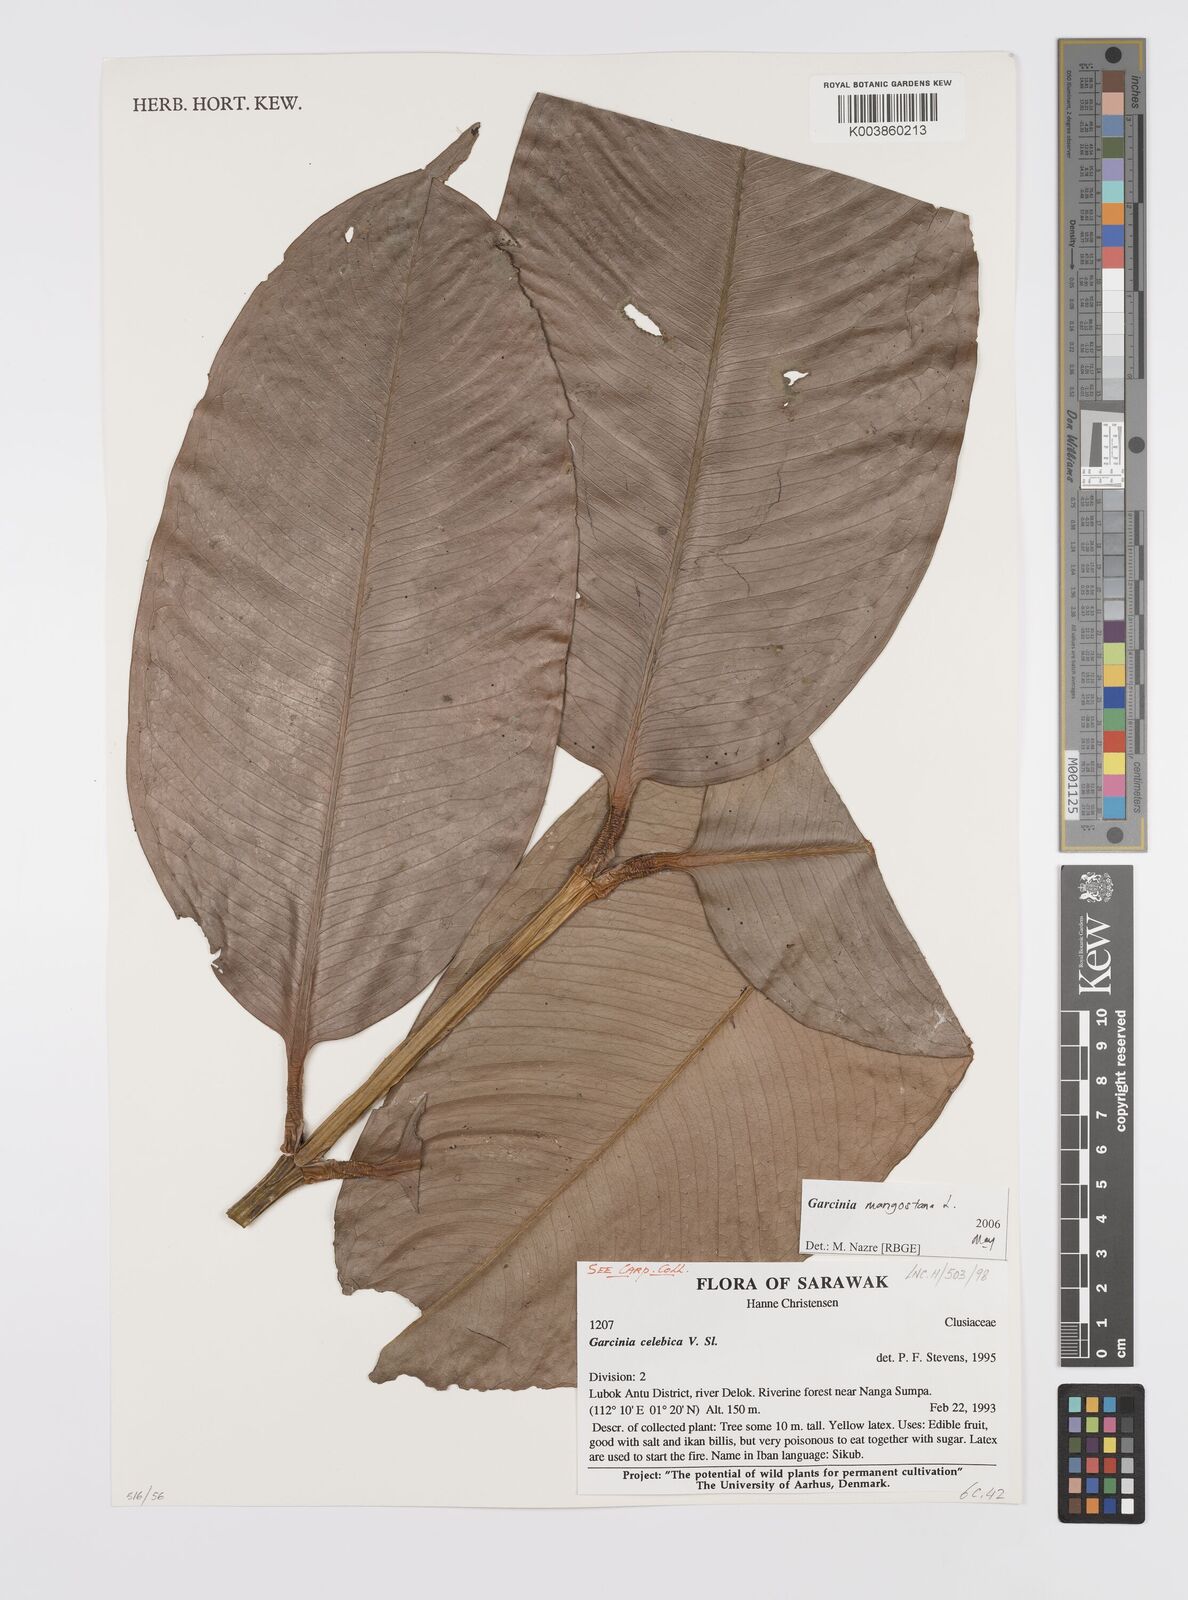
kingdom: Plantae
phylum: Tracheophyta
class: Magnoliopsida
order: Malpighiales
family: Clusiaceae
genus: Garcinia
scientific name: Garcinia mangostana
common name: Mangosteen
